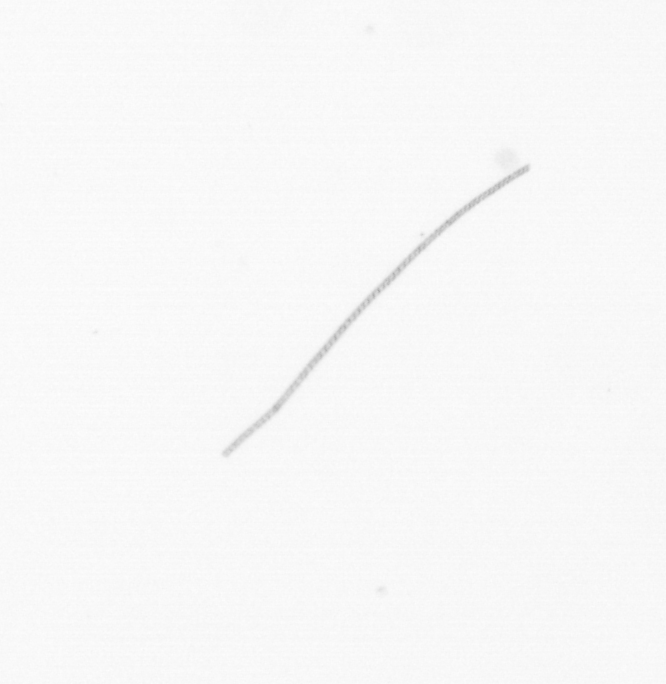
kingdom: Chromista
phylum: Ochrophyta
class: Bacillariophyceae
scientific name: Bacillariophyceae
